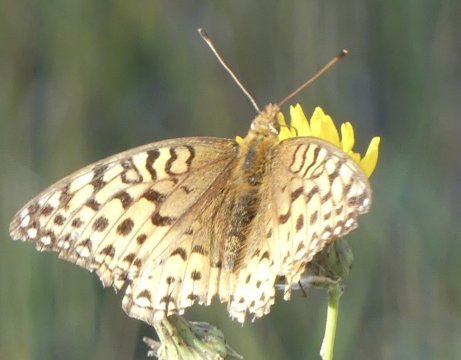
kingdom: Animalia
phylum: Arthropoda
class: Insecta
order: Lepidoptera
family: Nymphalidae
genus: Speyeria
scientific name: Speyeria
